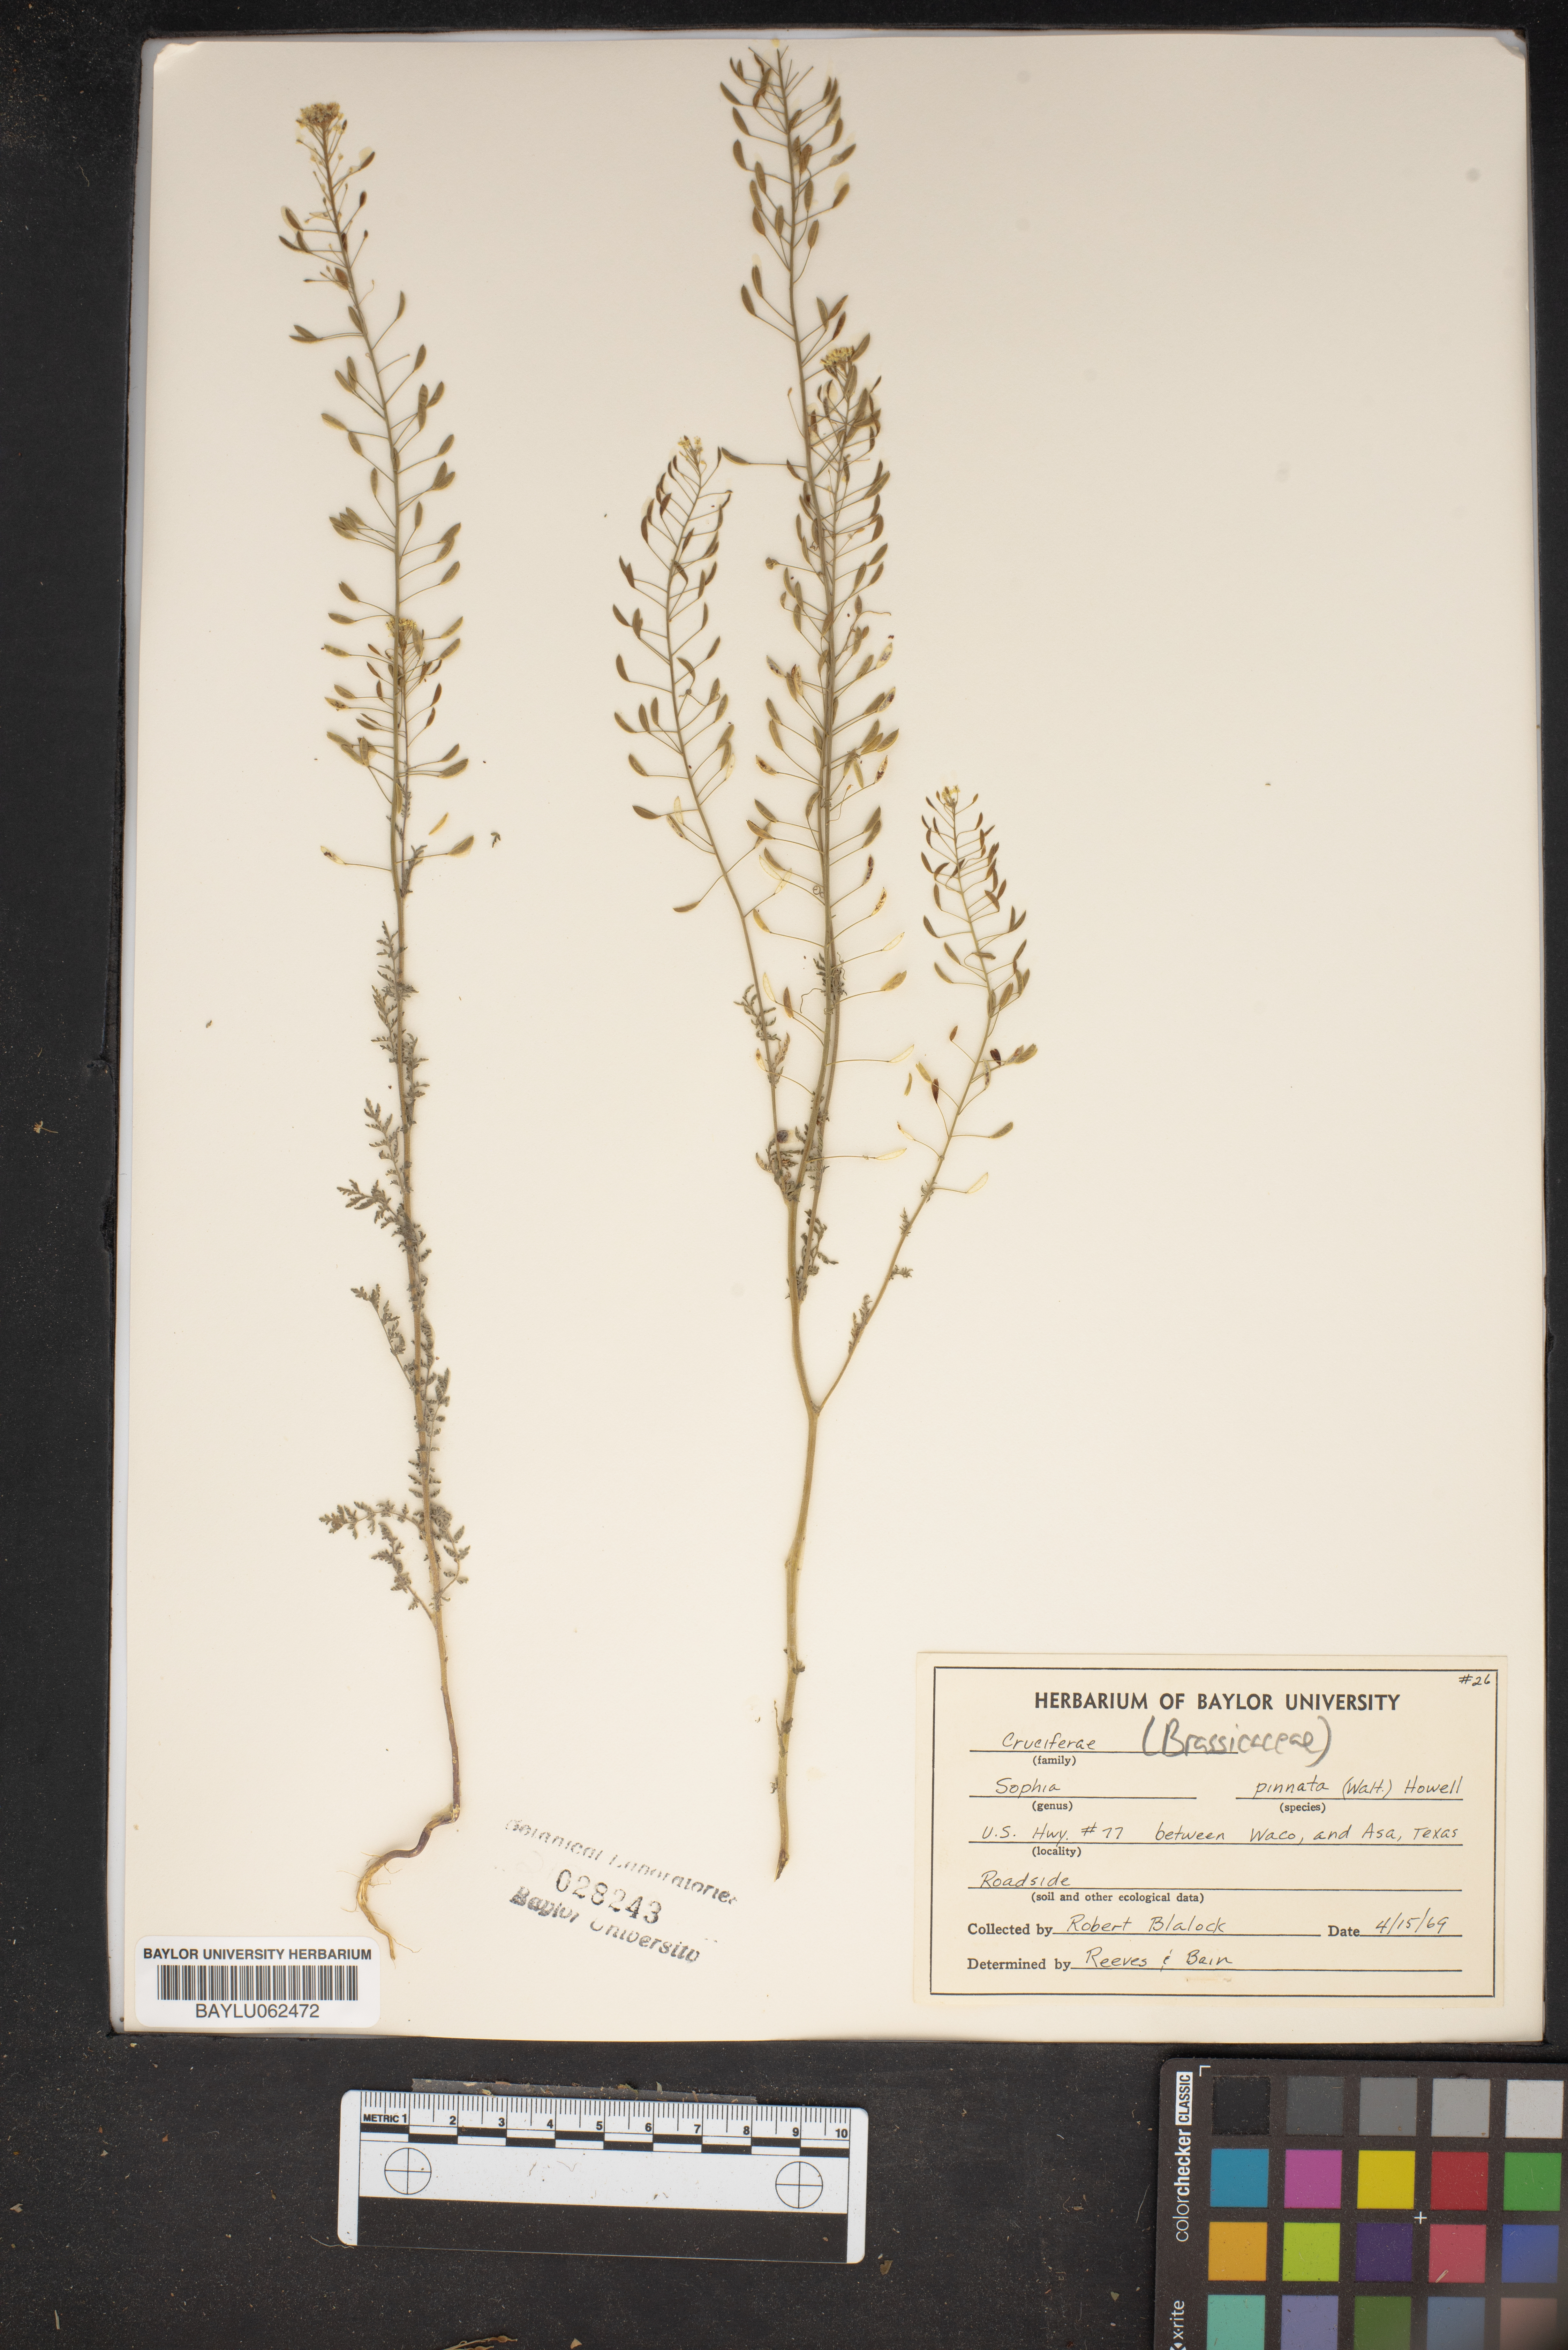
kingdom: Plantae
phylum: Tracheophyta
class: Magnoliopsida
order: Brassicales
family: Brassicaceae
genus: Descurainia
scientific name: Descurainia pinnata
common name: Western tansy mustard
